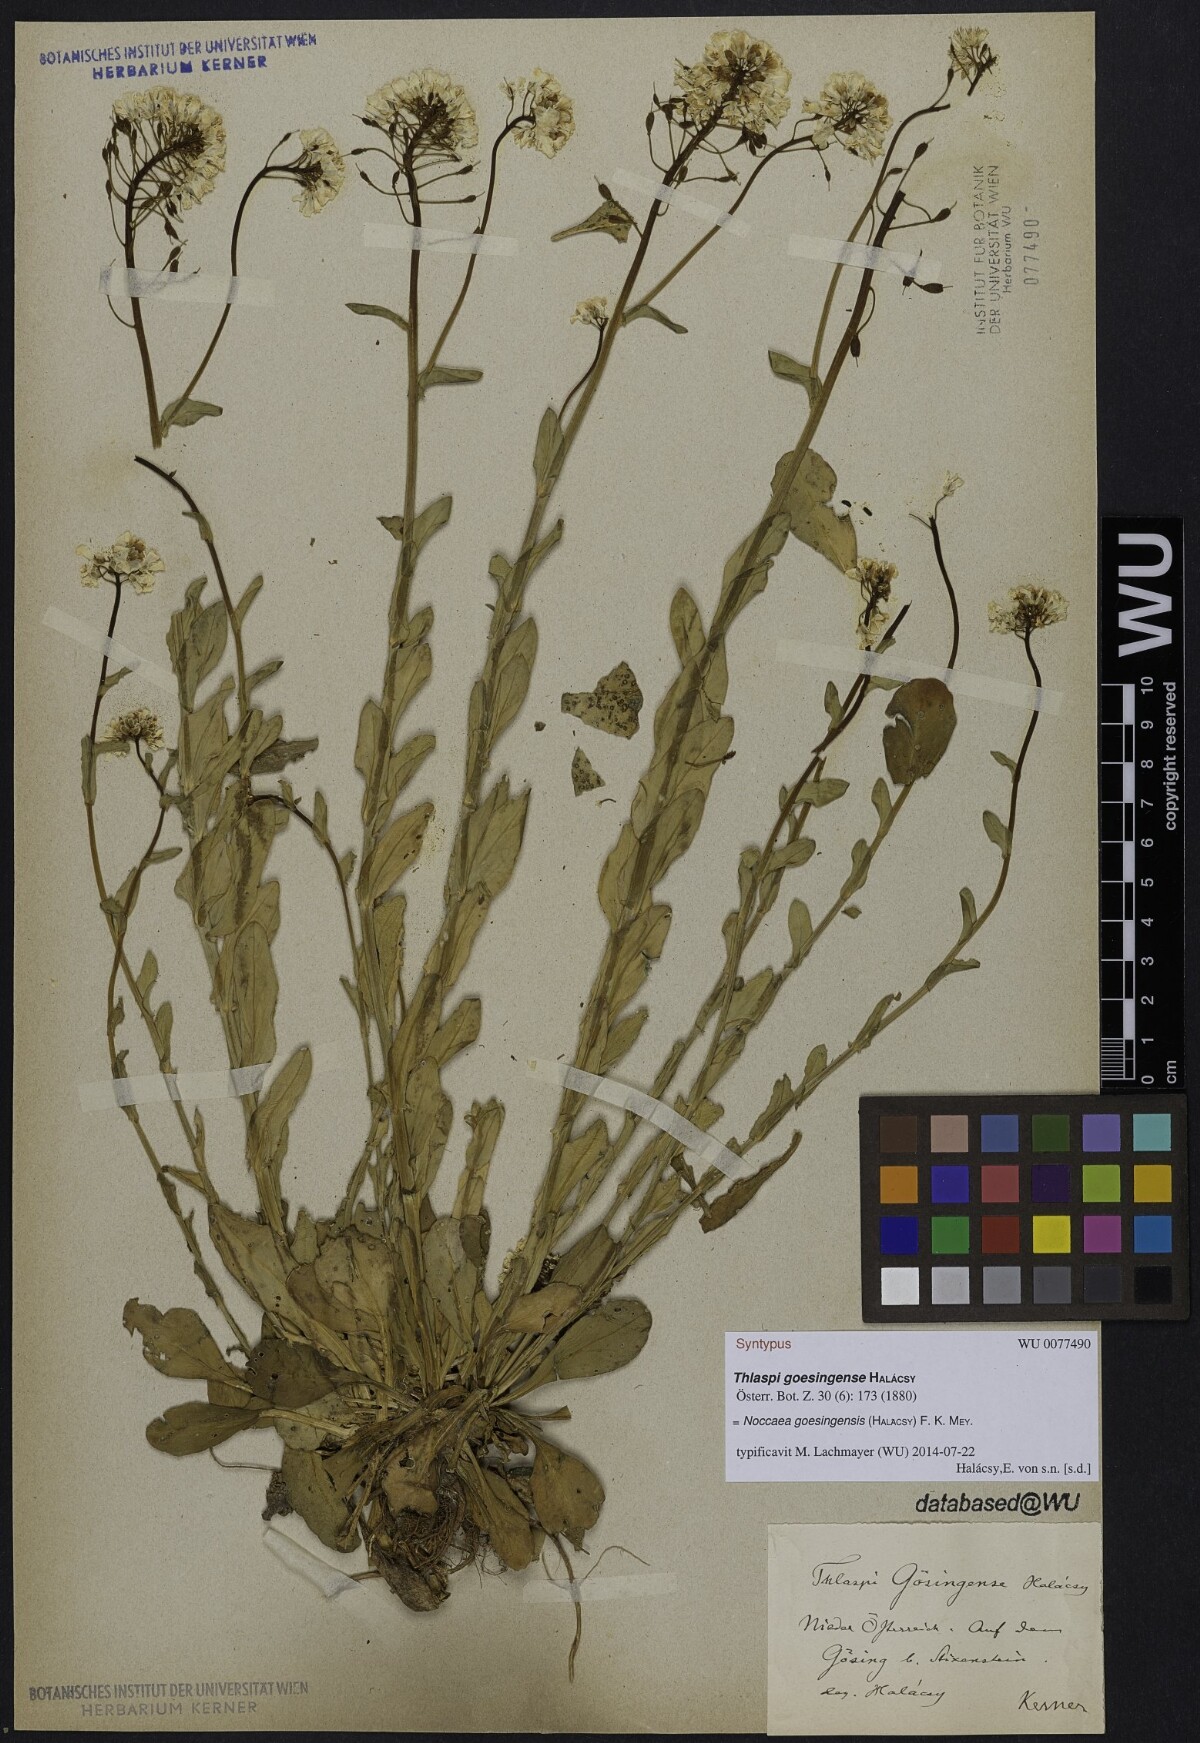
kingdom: Plantae
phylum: Tracheophyta
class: Magnoliopsida
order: Brassicales
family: Brassicaceae
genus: Noccaea
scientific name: Noccaea goesingensis
